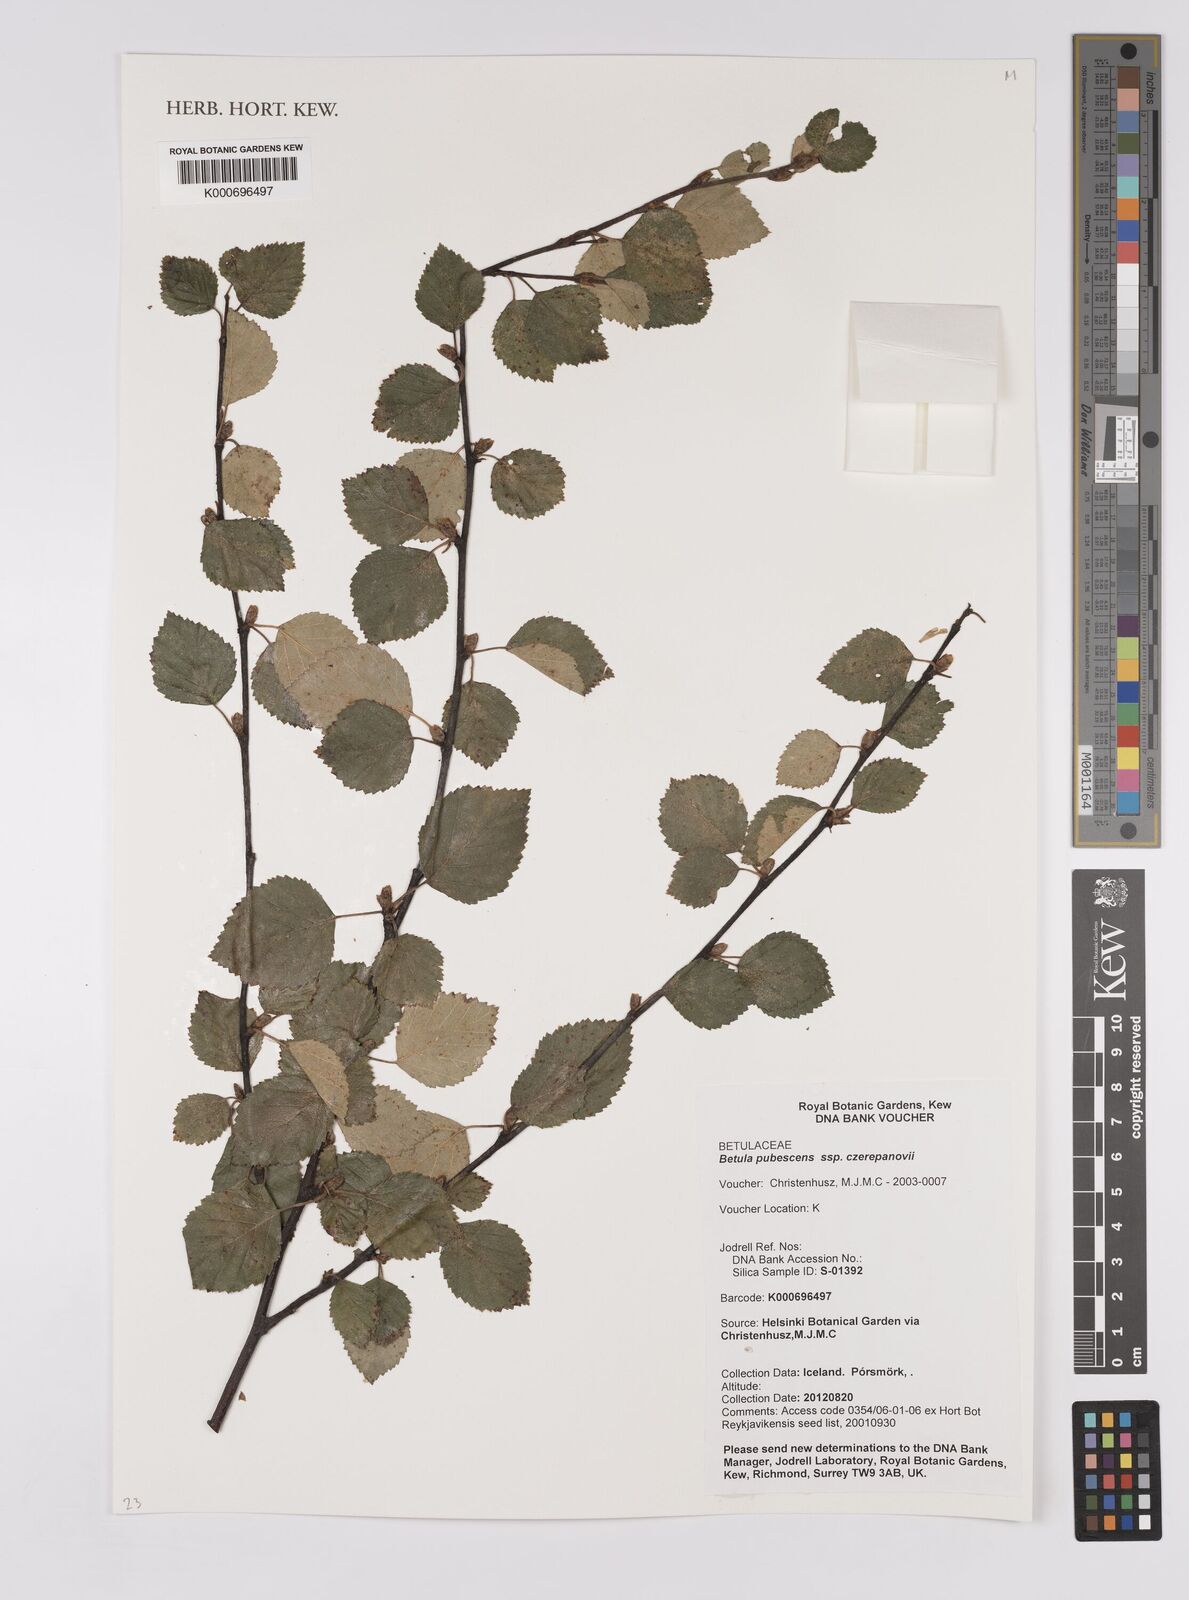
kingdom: Plantae
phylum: Tracheophyta
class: Magnoliopsida
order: Fagales
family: Betulaceae
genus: Betula
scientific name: Betula pubescens
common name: Downy birch
